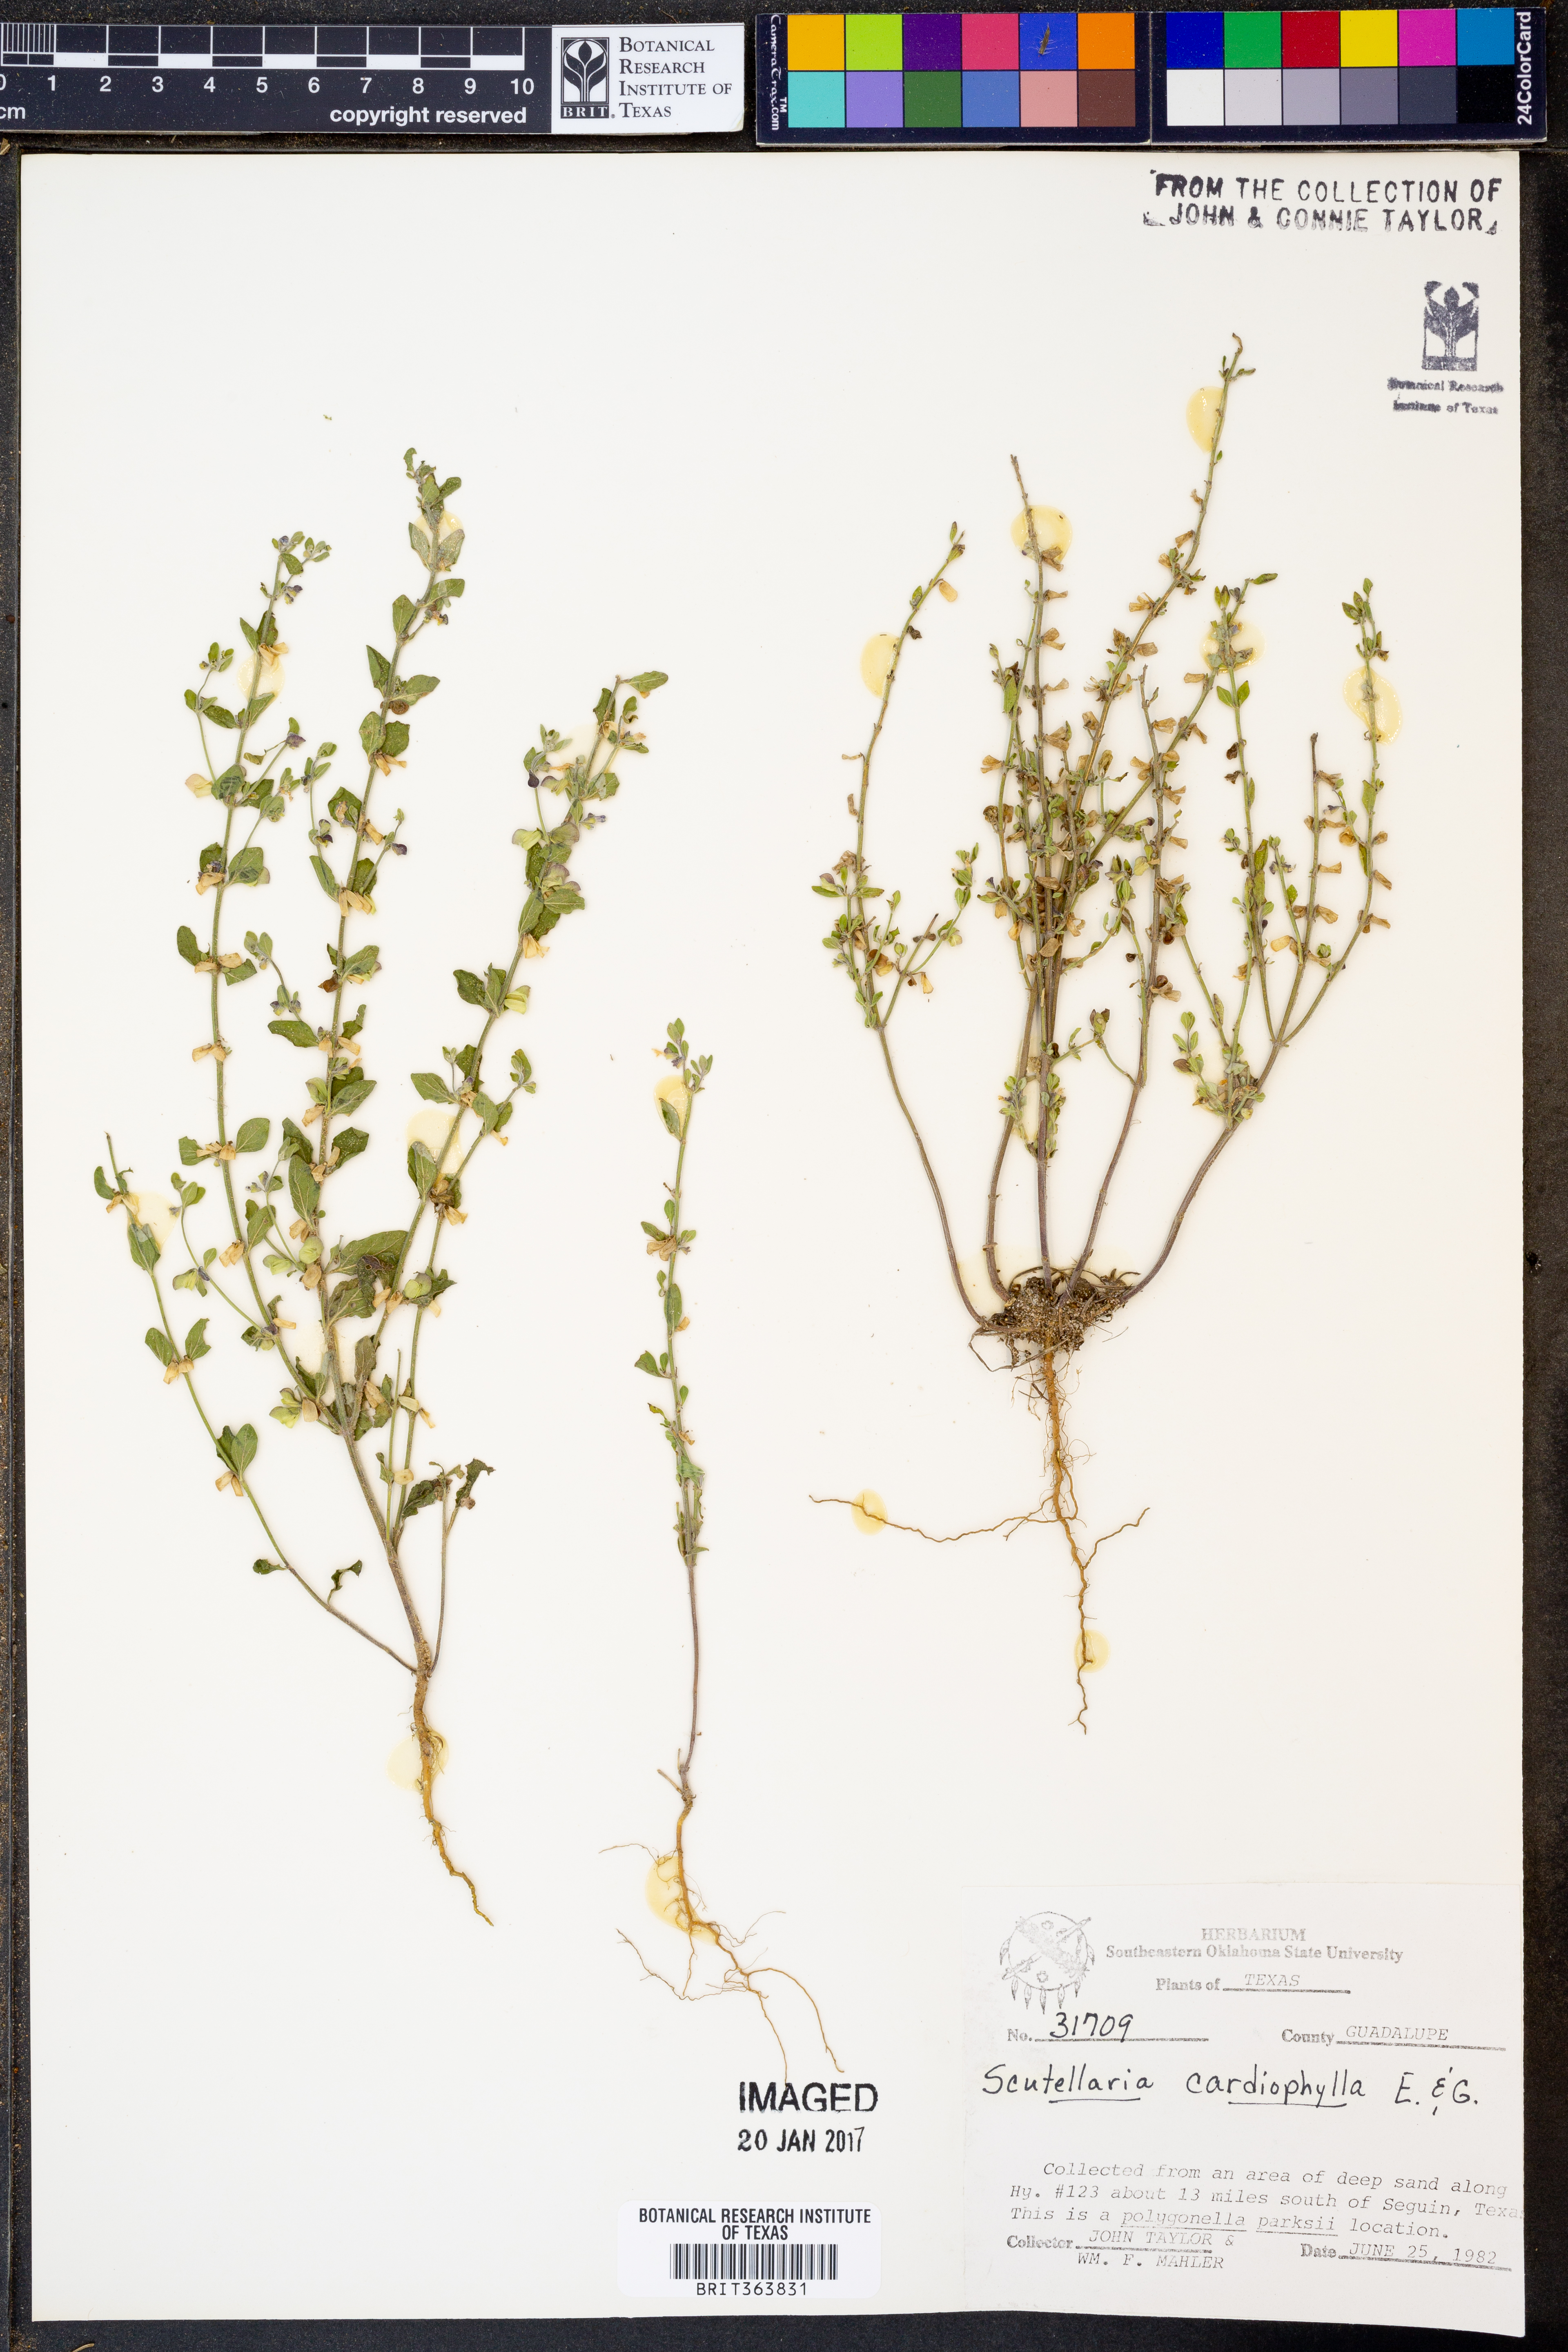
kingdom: Plantae
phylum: Tracheophyta
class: Magnoliopsida
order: Lamiales
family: Lamiaceae
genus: Scutellaria
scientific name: Scutellaria cardiophylla
